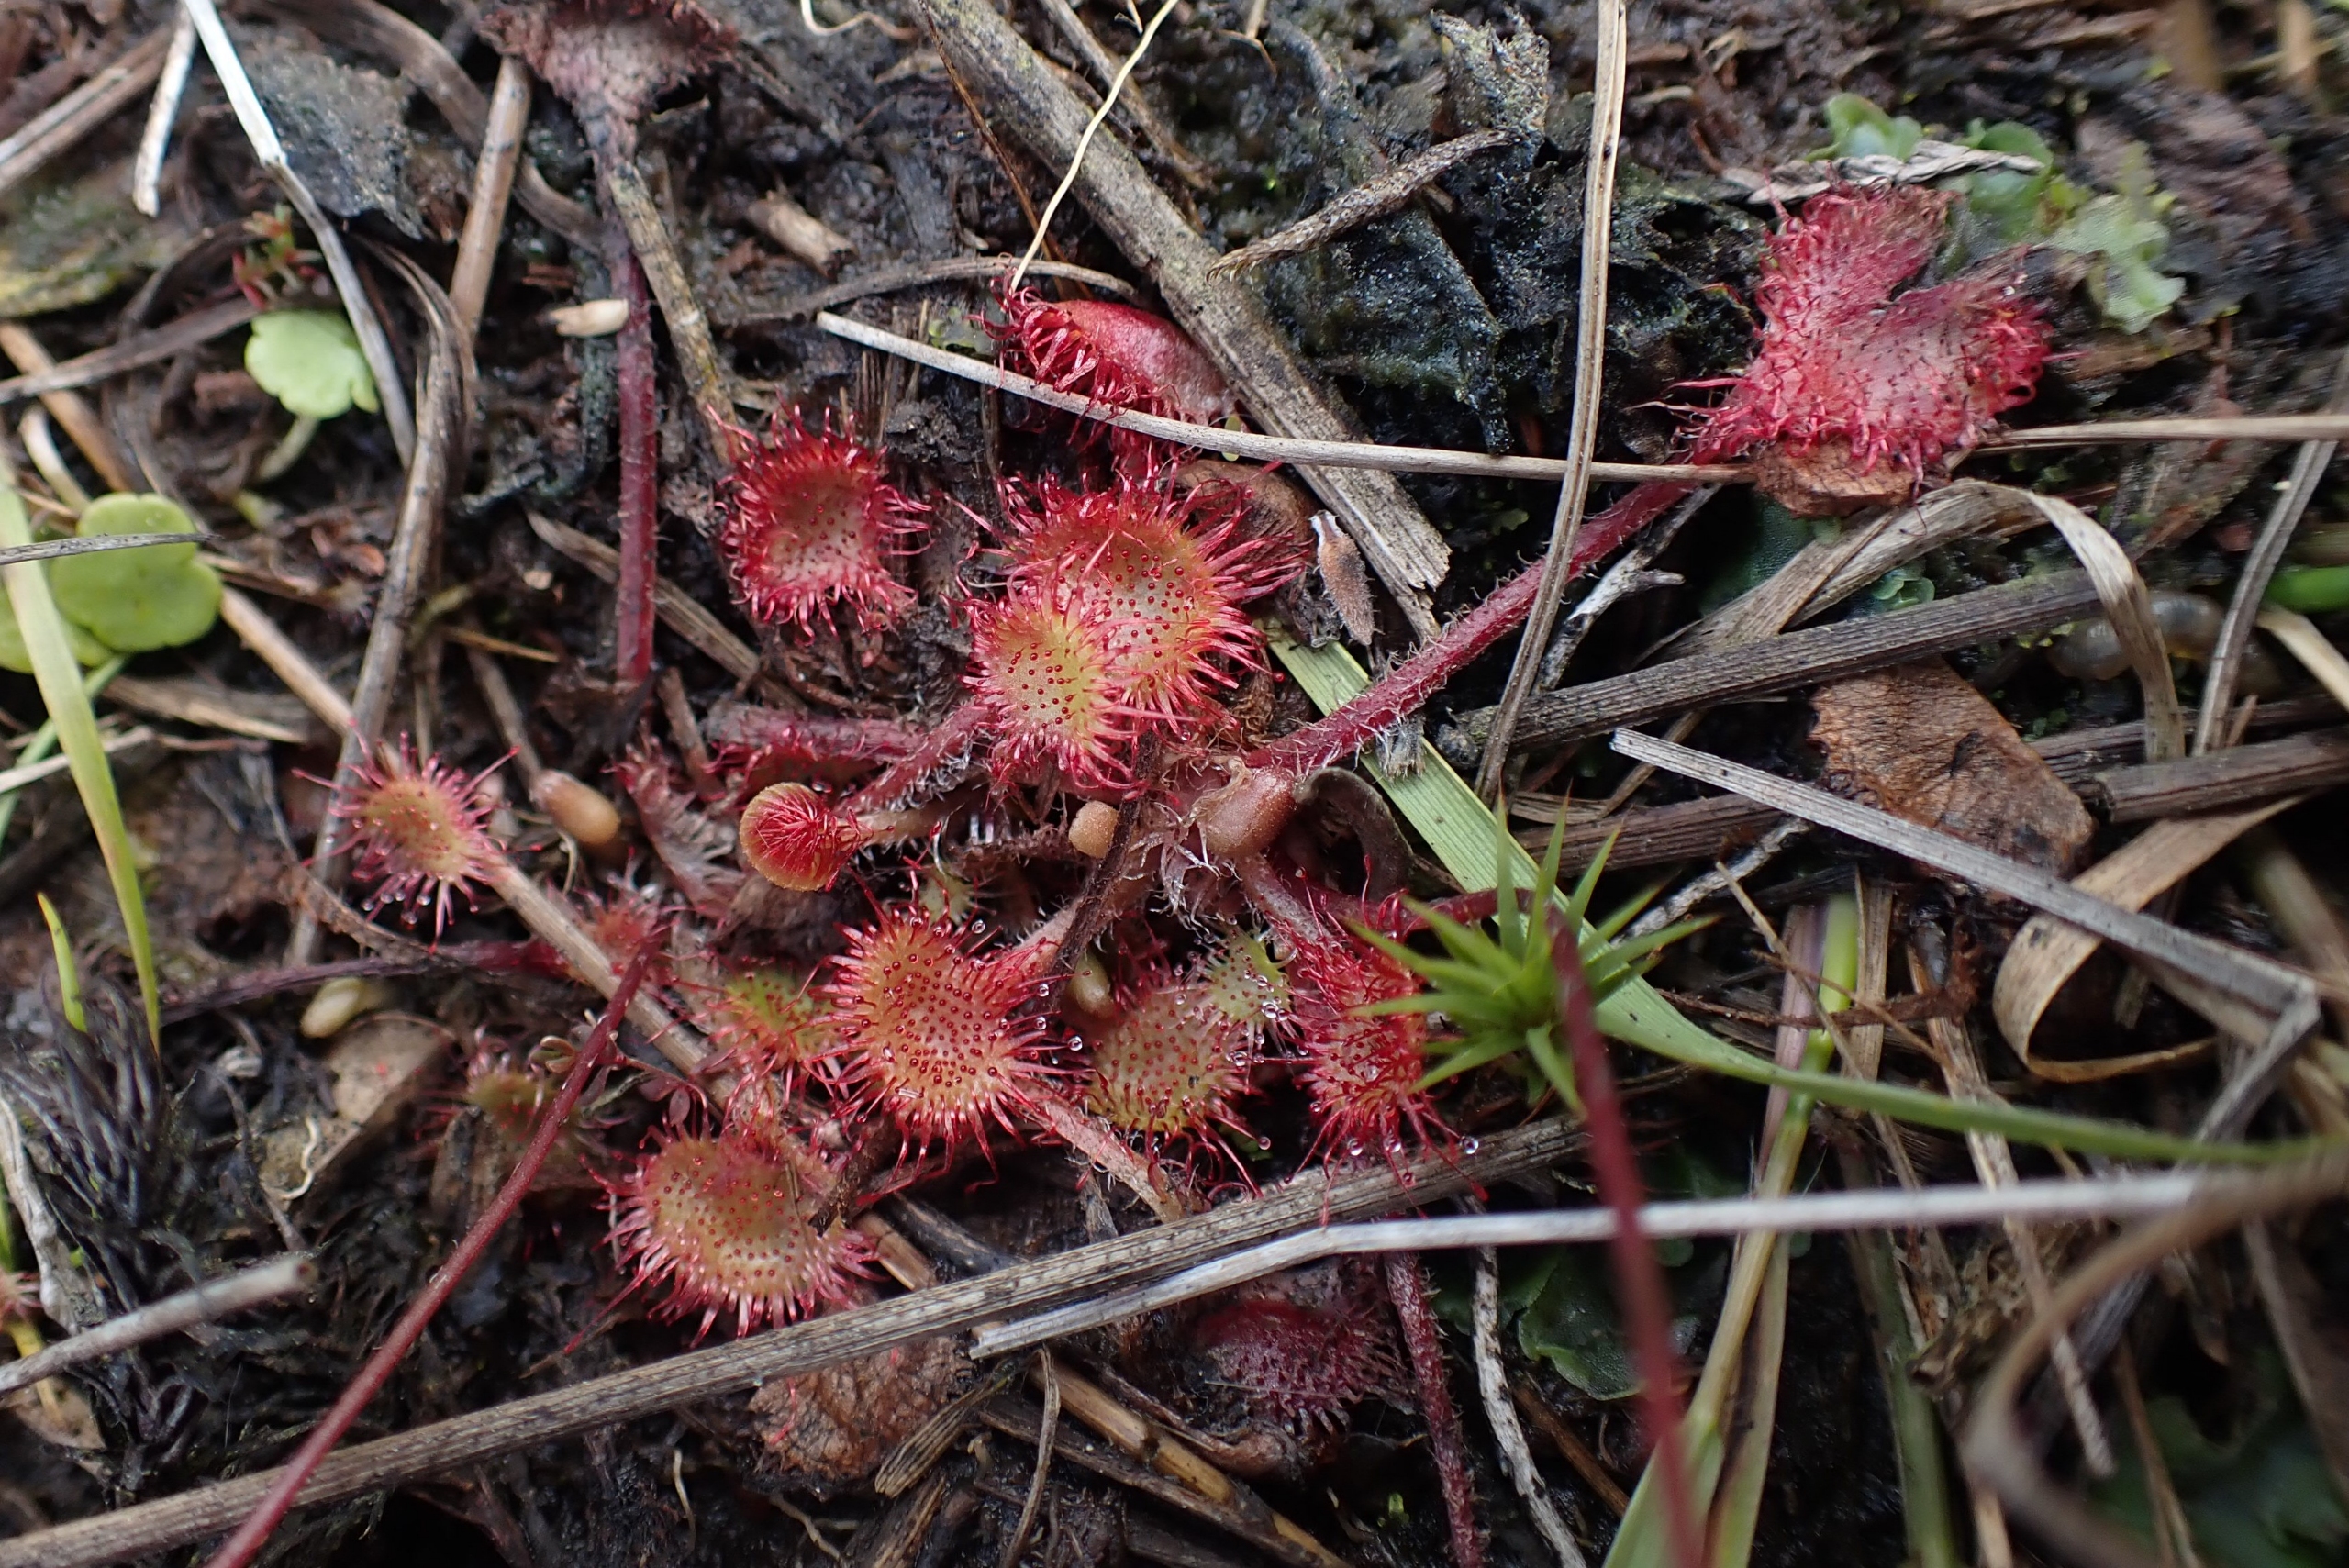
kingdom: Plantae
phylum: Tracheophyta
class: Magnoliopsida
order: Caryophyllales
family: Droseraceae
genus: Drosera
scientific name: Drosera rotundifolia
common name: Rundbladet soldug
